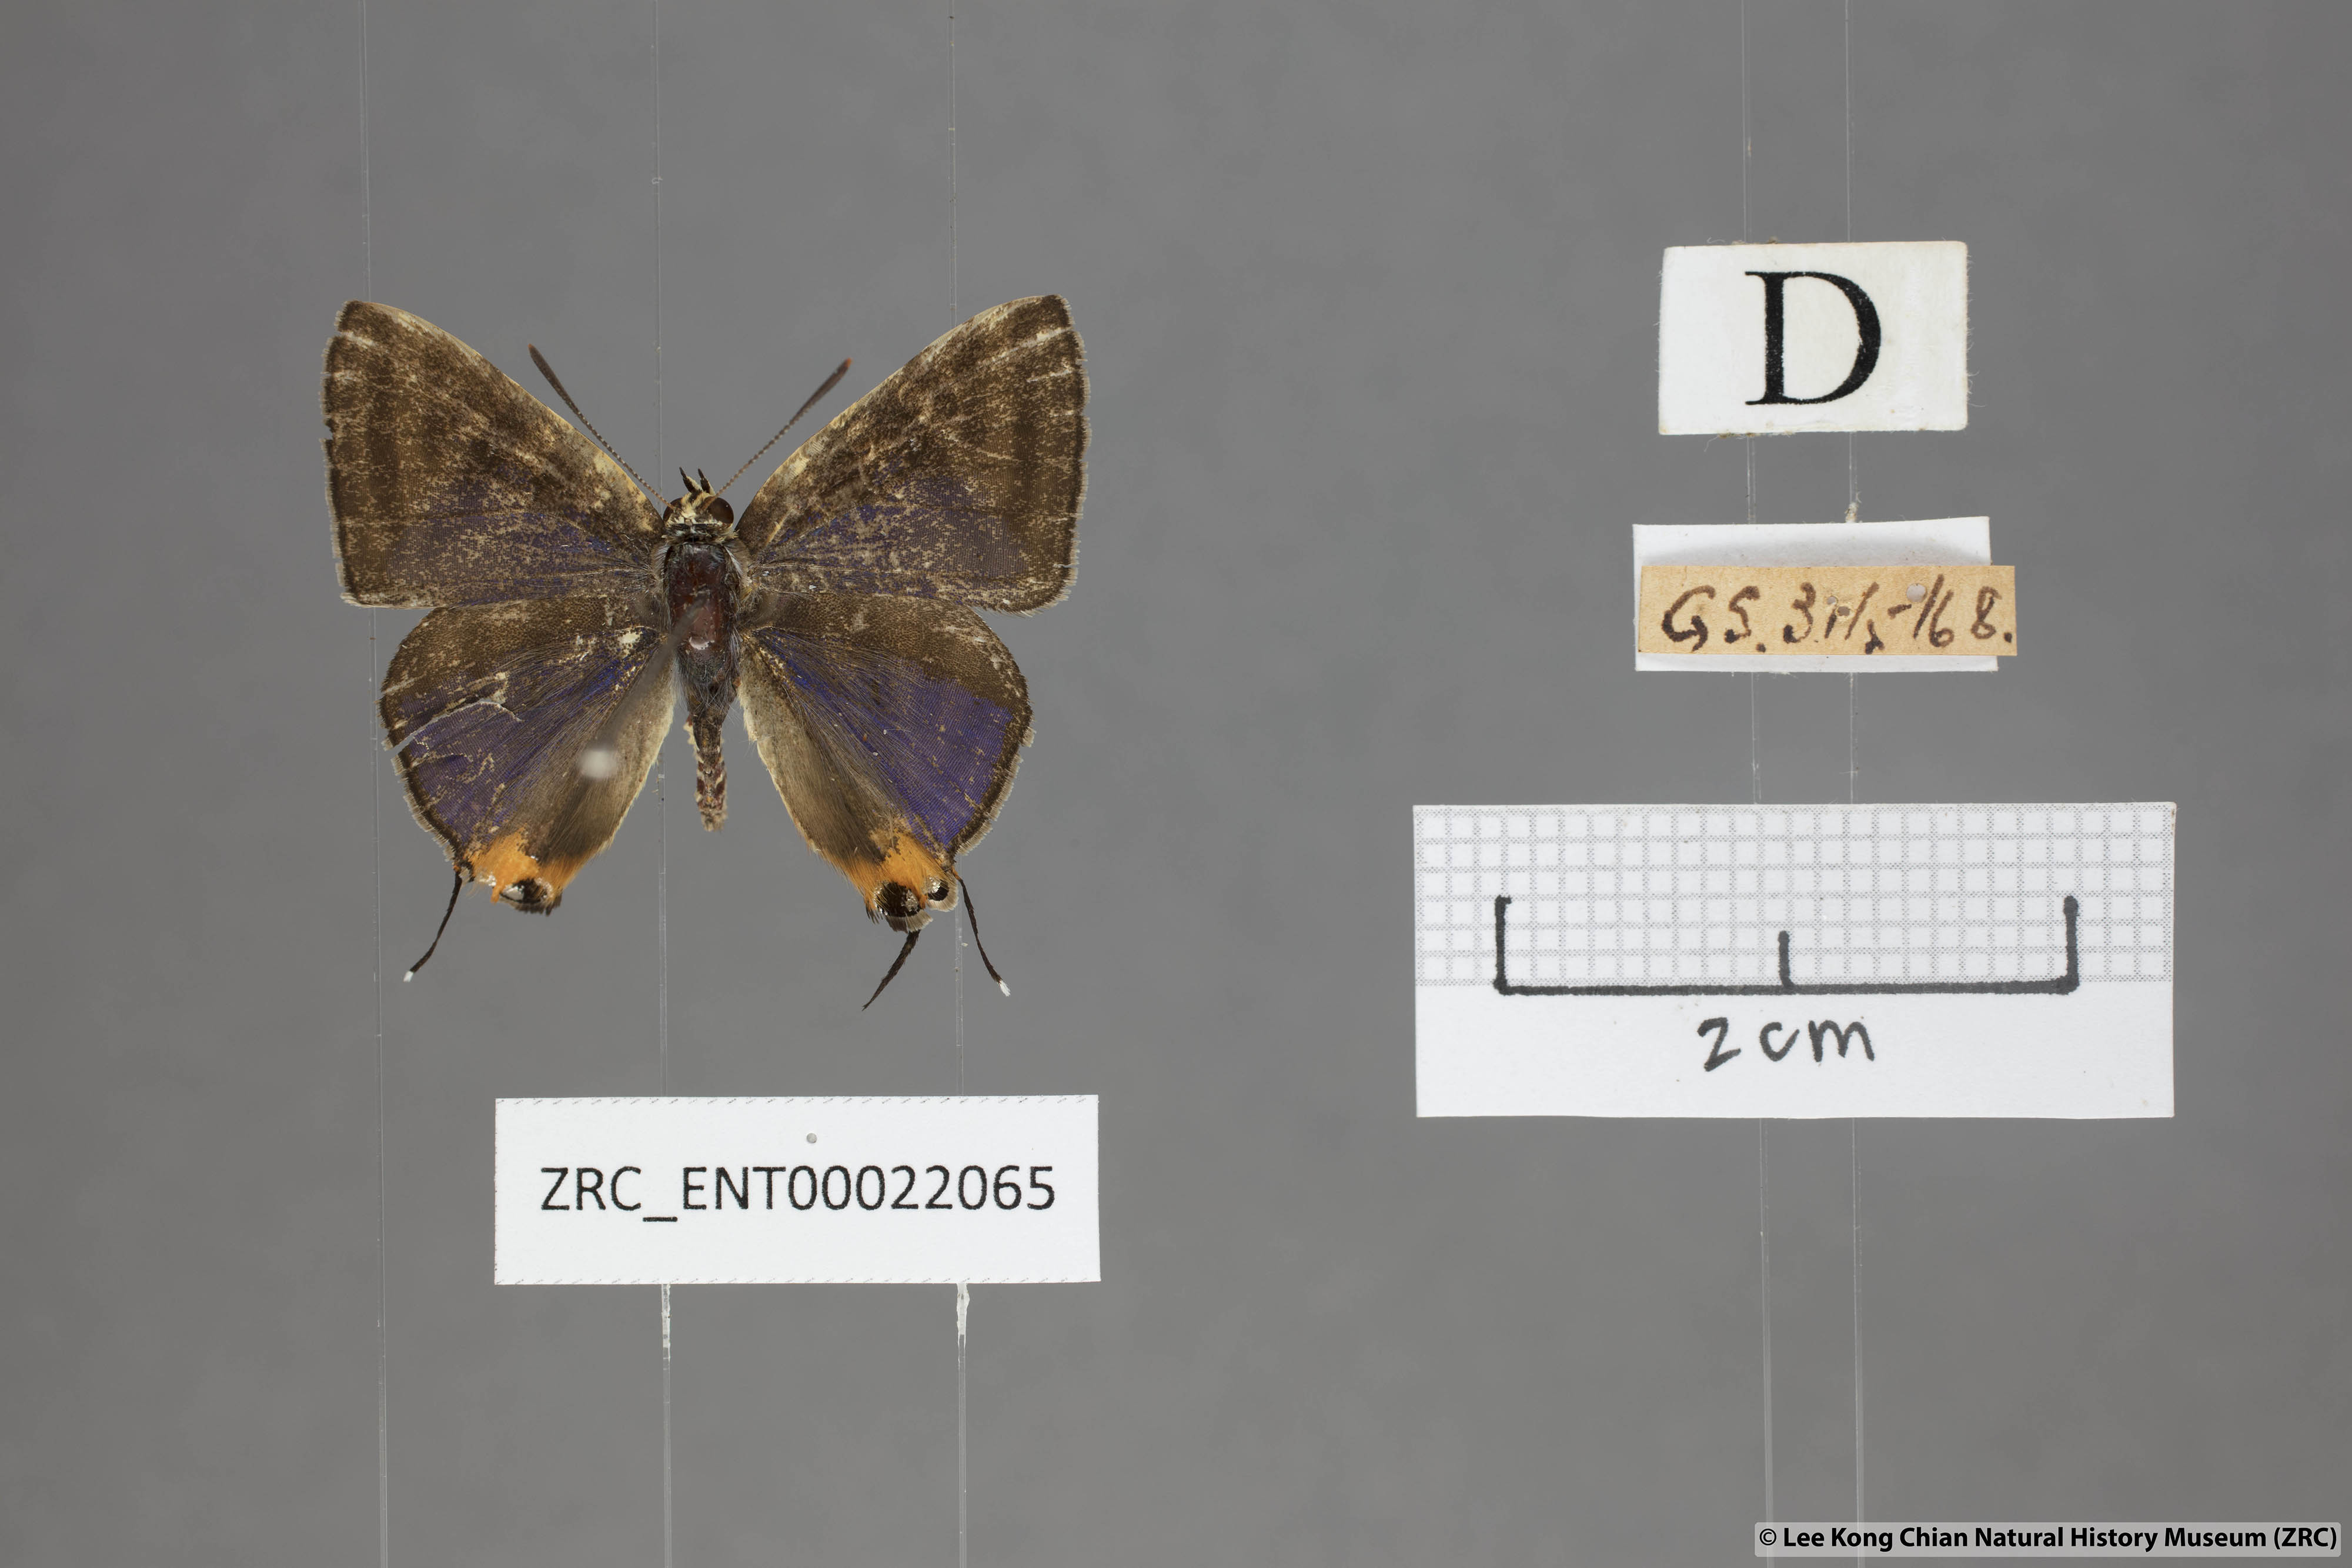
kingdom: Animalia
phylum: Arthropoda
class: Insecta
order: Lepidoptera
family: Lycaenidae
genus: Spindasis
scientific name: Spindasis lohita
